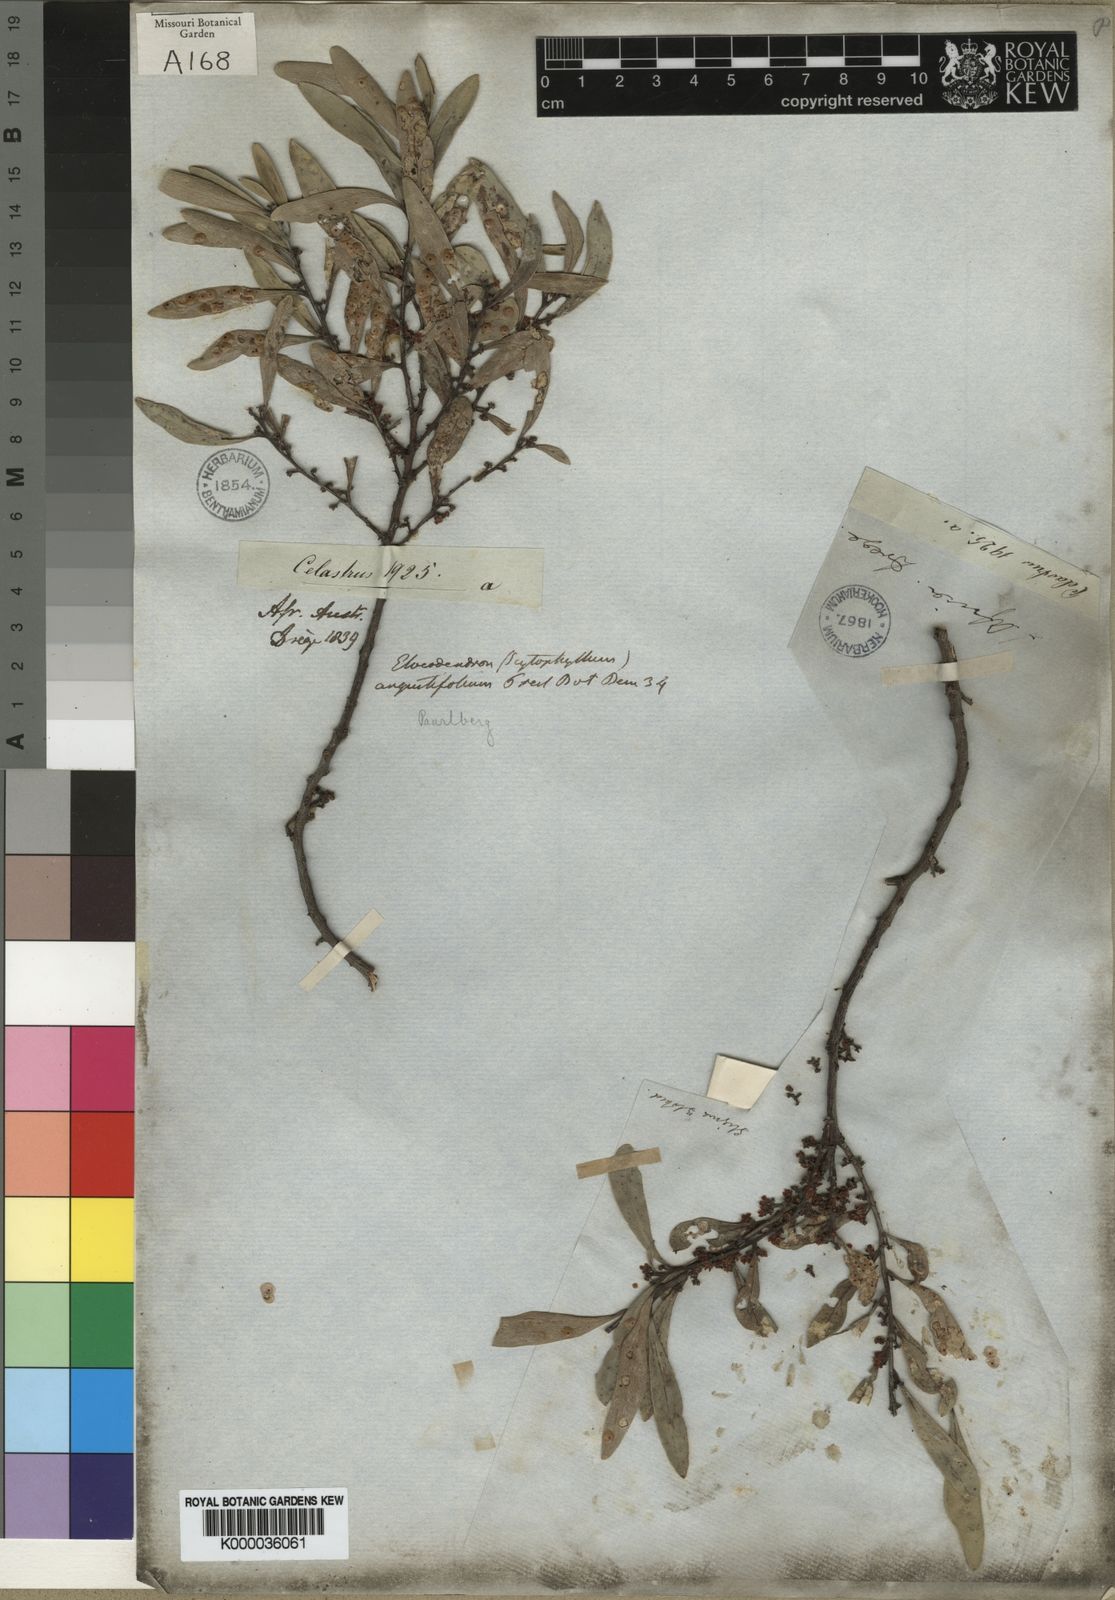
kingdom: Plantae
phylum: Tracheophyta
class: Magnoliopsida
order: Celastrales
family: Celastraceae
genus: Gymnosporia
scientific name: Gymnosporia oleosa
